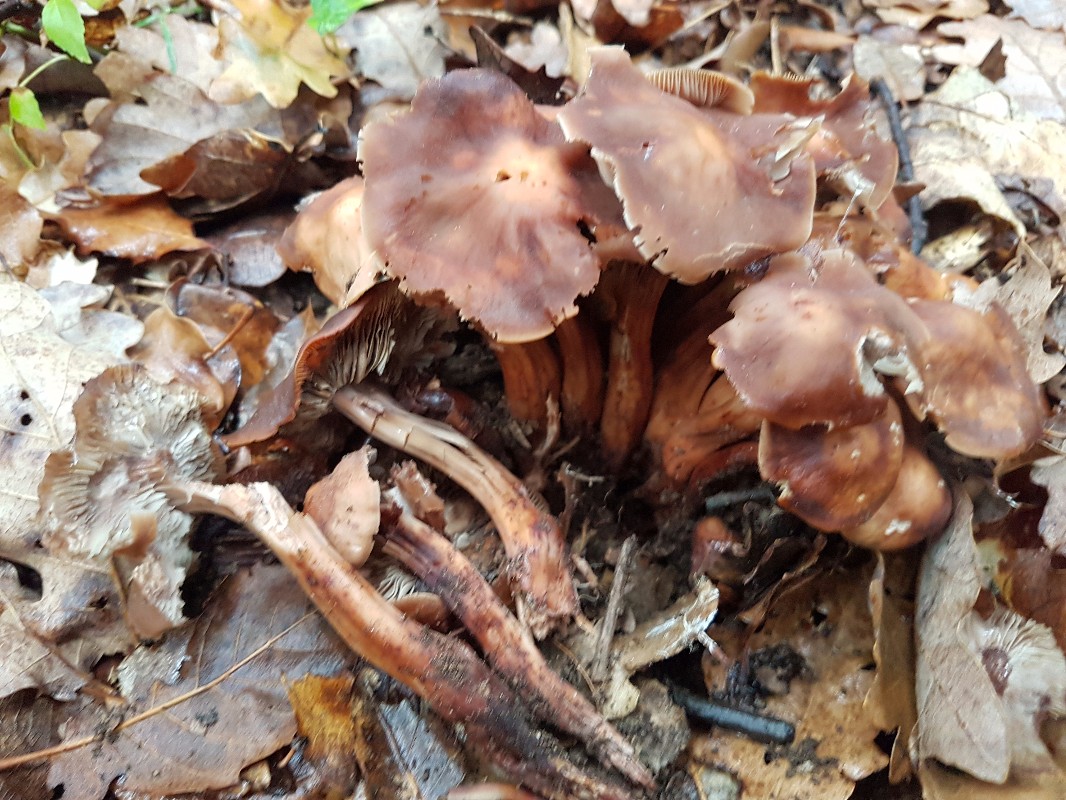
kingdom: Fungi
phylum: Basidiomycota
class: Agaricomycetes
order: Agaricales
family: Omphalotaceae
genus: Gymnopus
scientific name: Gymnopus fusipes
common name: tenstokket fladhat
